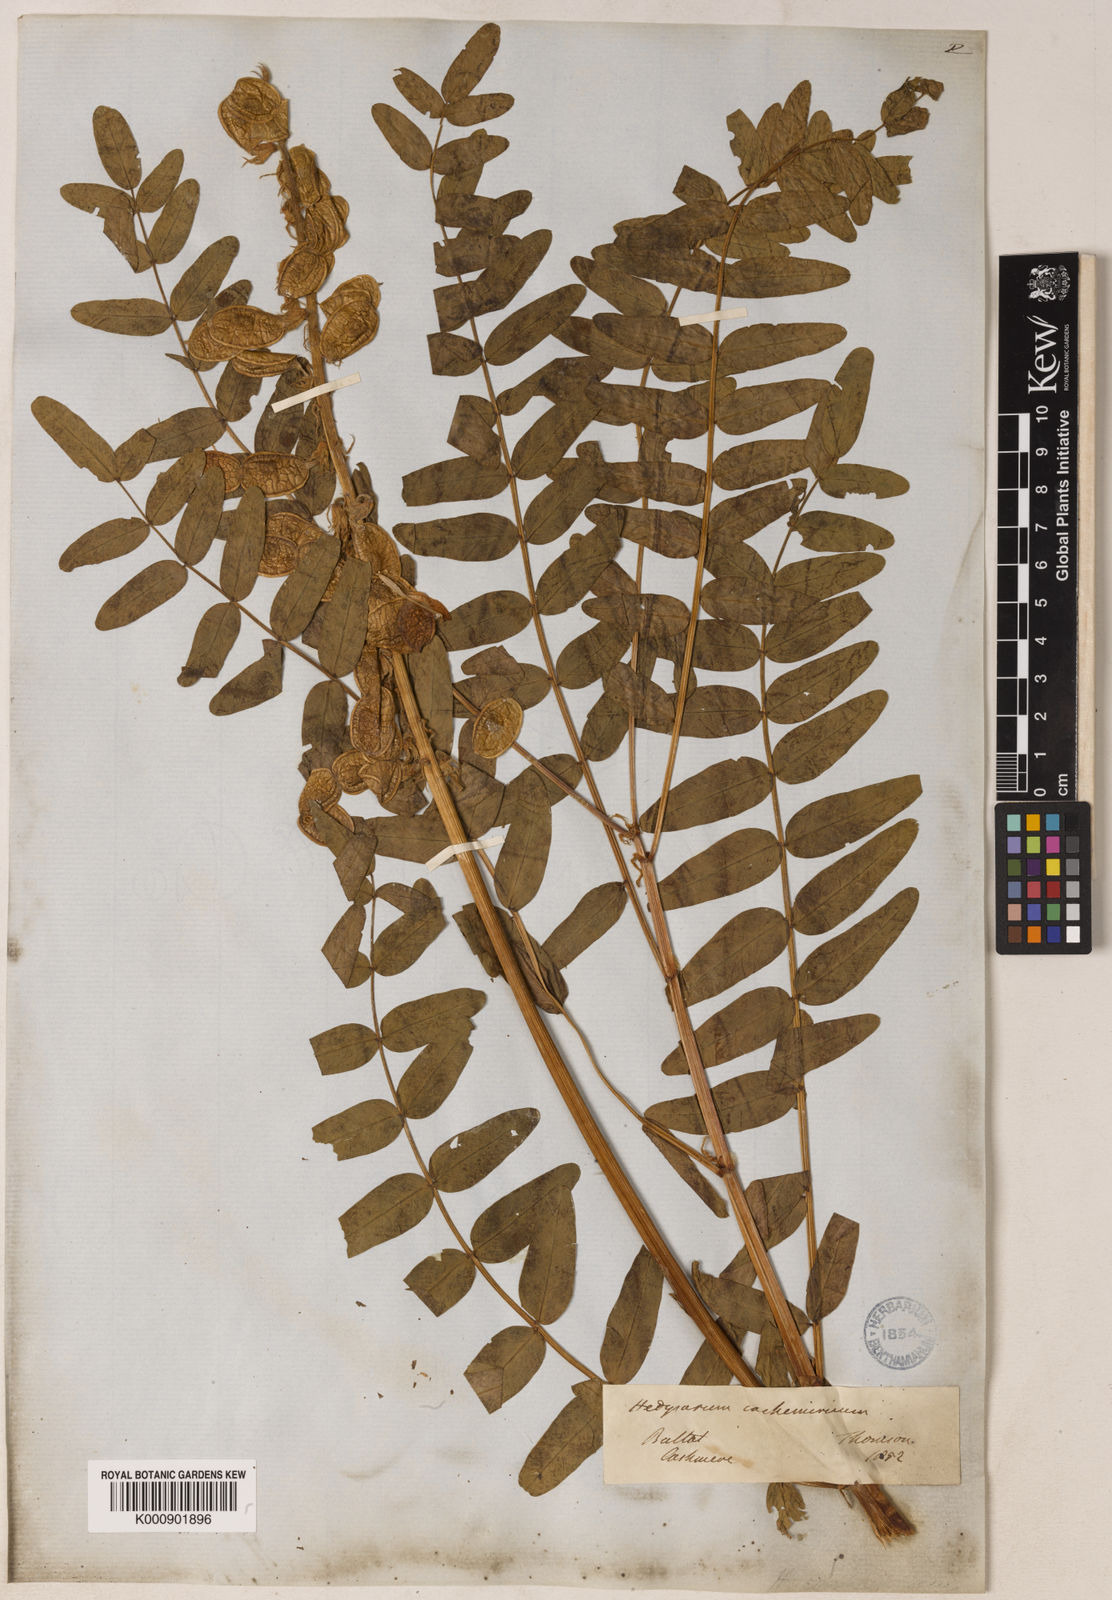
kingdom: Plantae
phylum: Tracheophyta
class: Magnoliopsida
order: Fabales
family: Fabaceae
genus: Hedysarum
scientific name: Hedysarum cachemirianum
